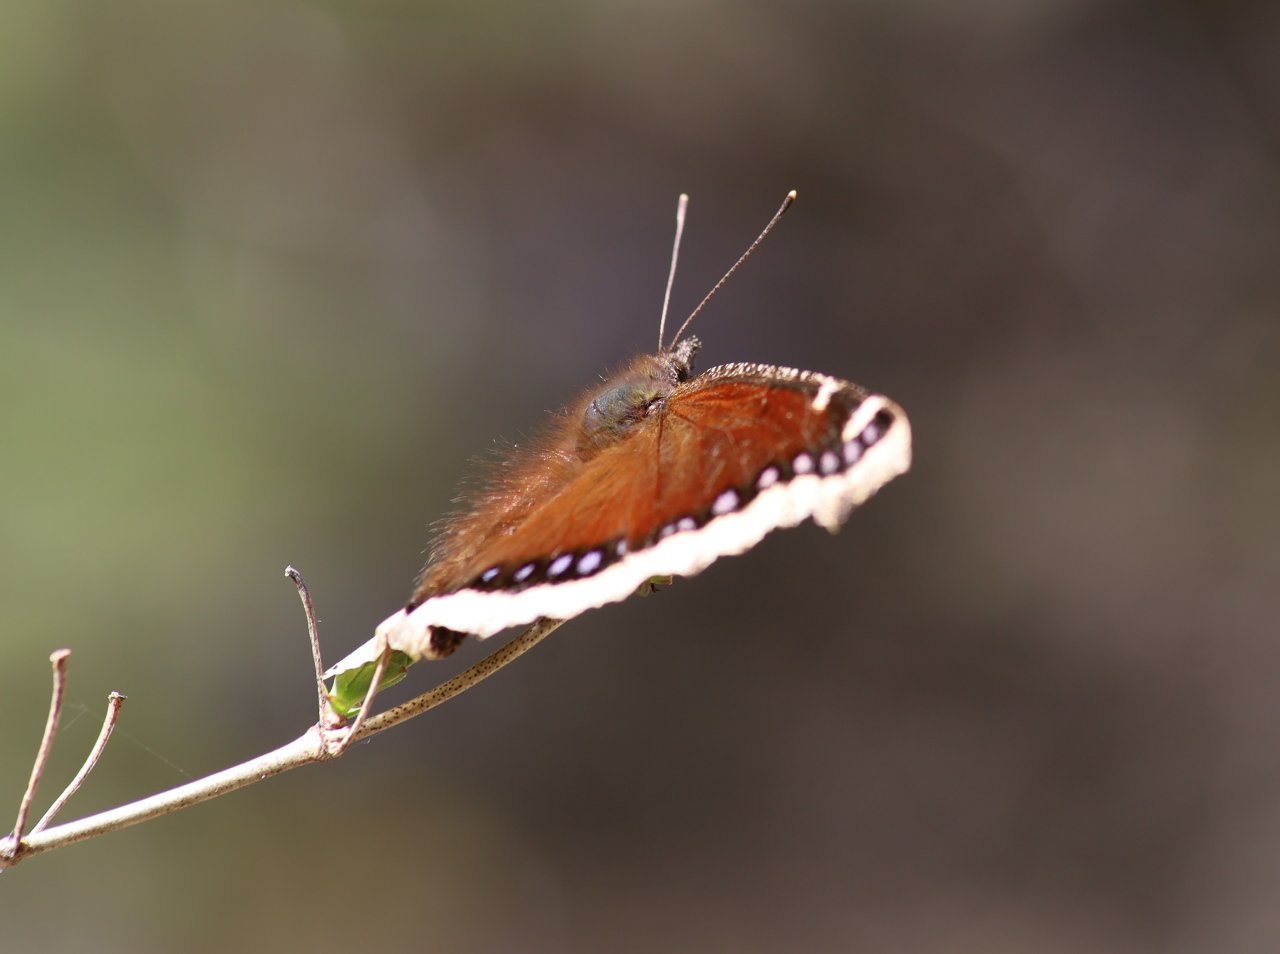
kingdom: Animalia
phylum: Arthropoda
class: Insecta
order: Lepidoptera
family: Nymphalidae
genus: Nymphalis
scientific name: Nymphalis antiopa
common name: Mourning Cloak
